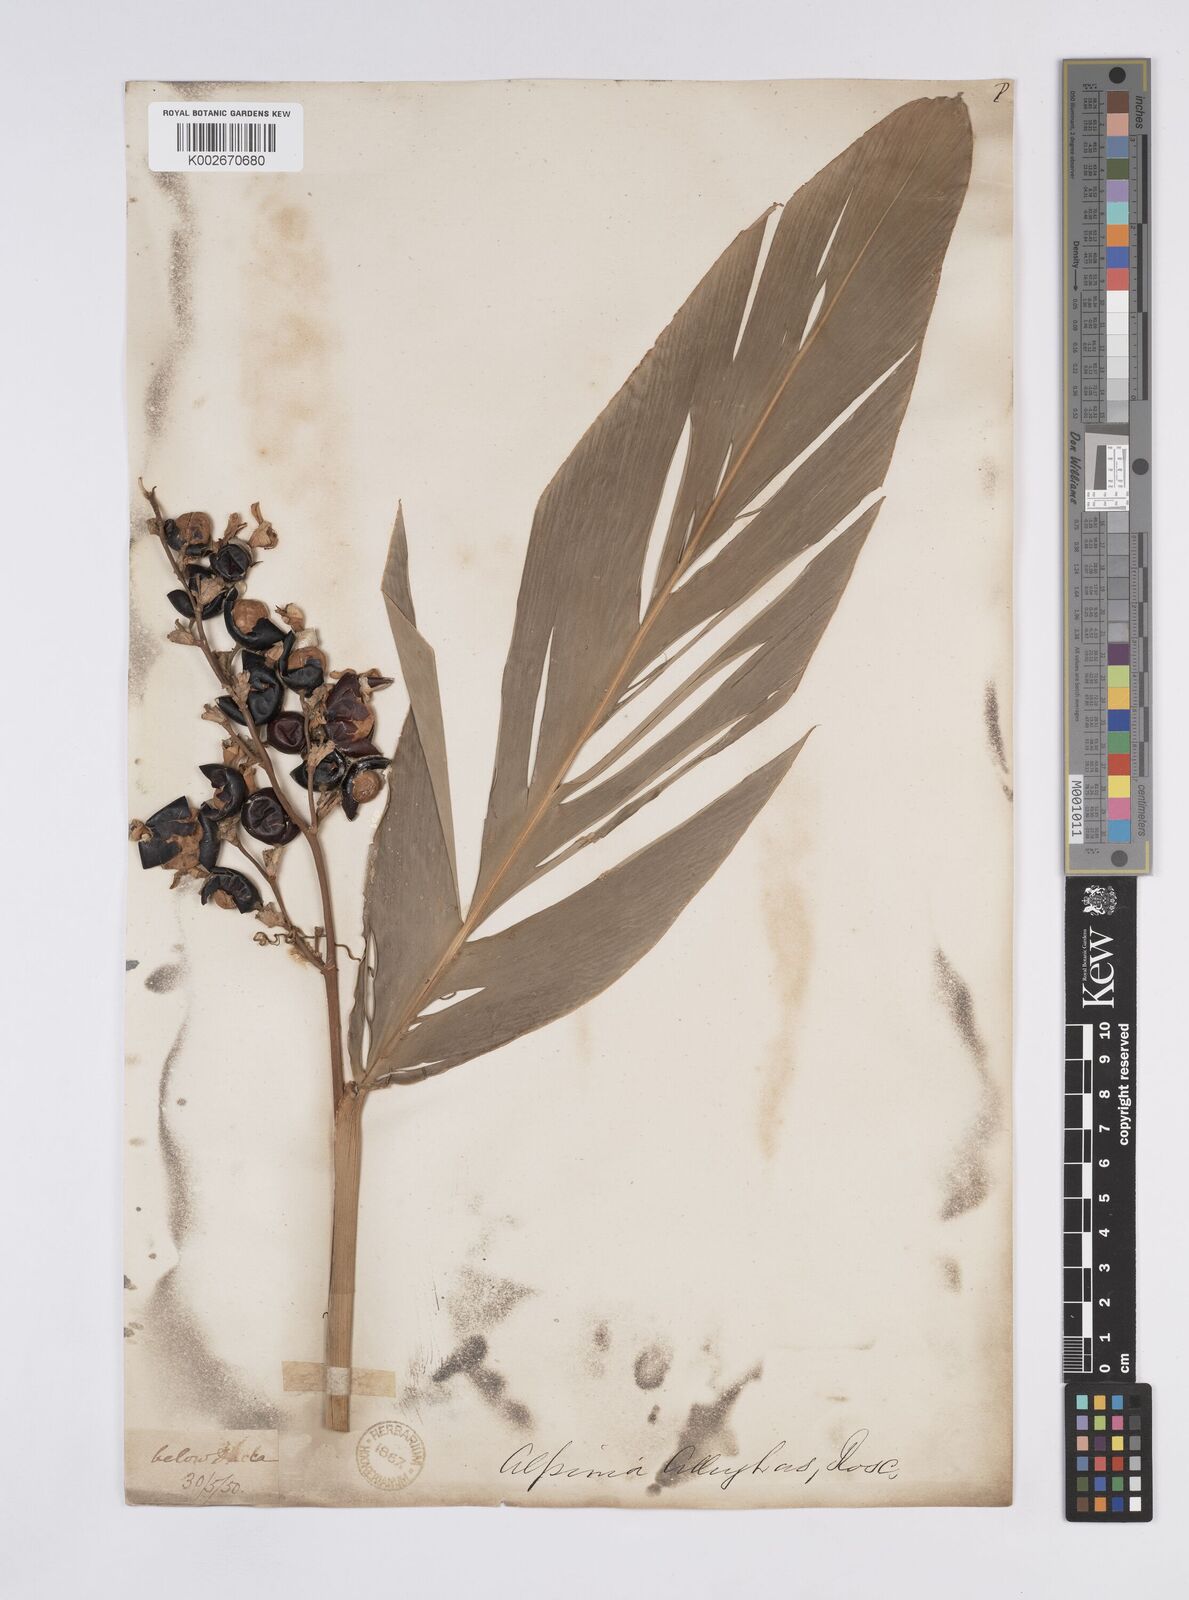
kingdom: Plantae
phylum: Tracheophyta
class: Liliopsida
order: Zingiberales
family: Zingiberaceae
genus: Alpinia
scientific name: Alpinia nigra
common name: Black fruited galanga
